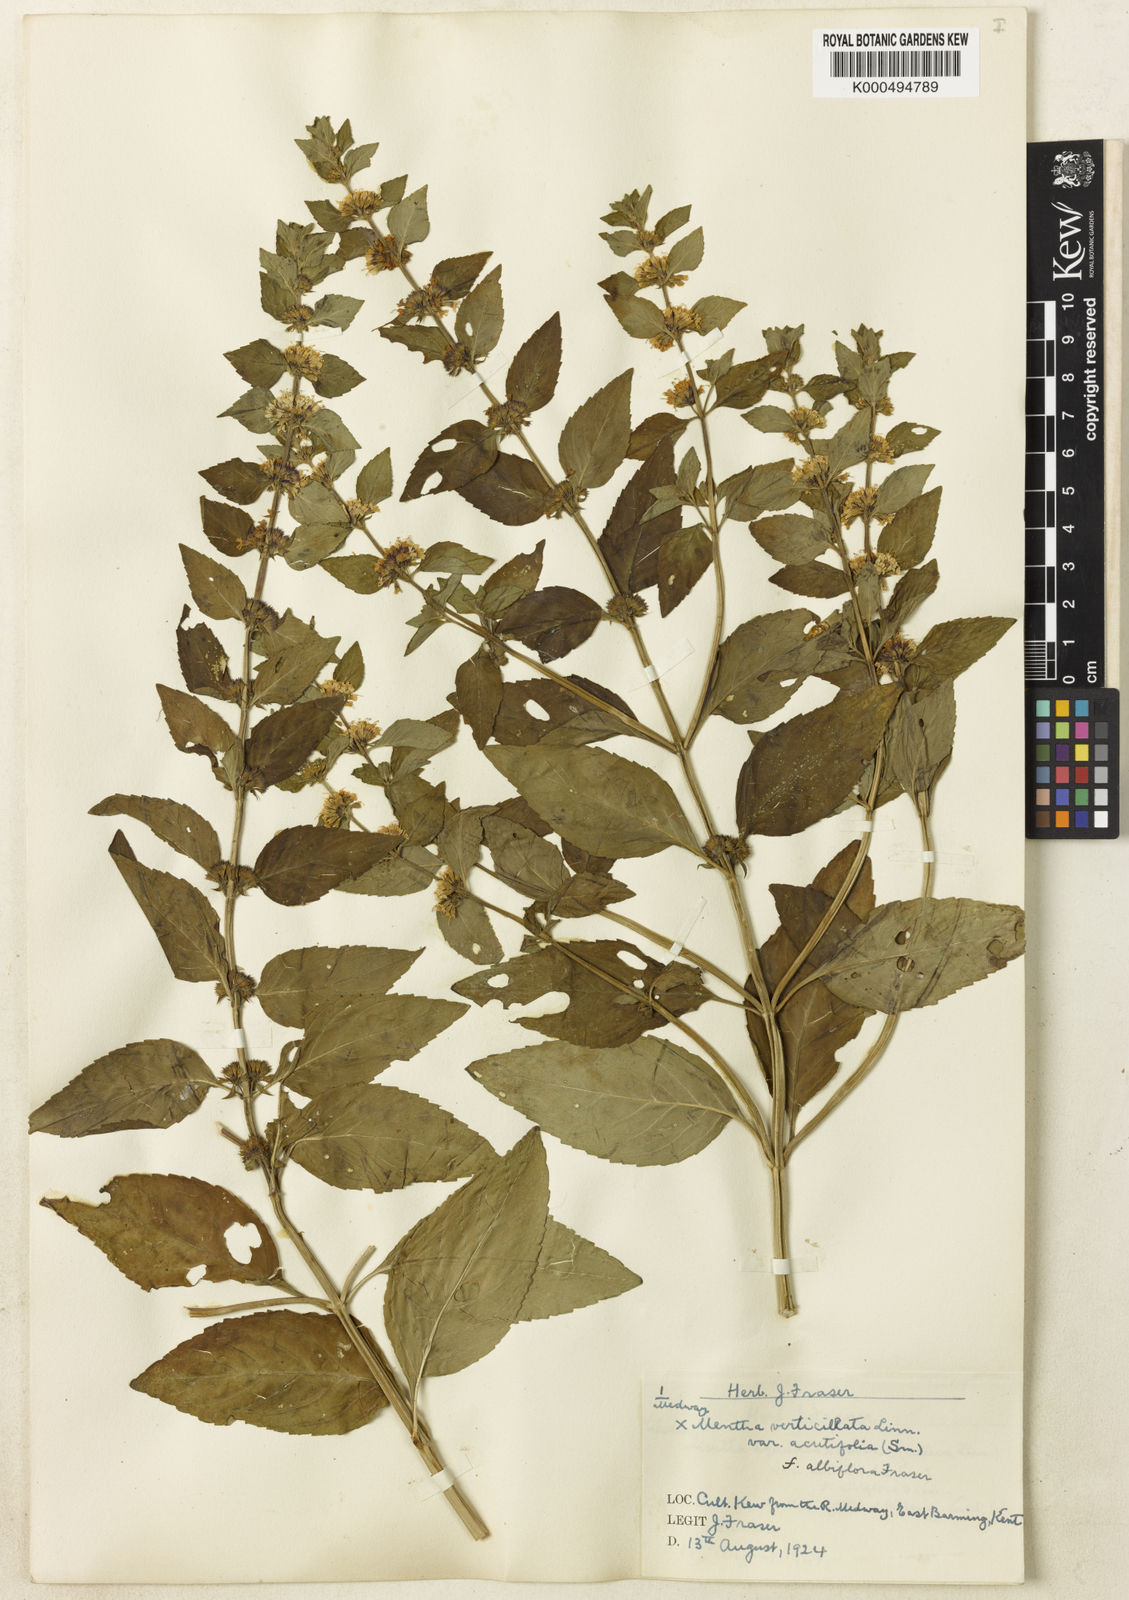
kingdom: Plantae
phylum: Tracheophyta
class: Magnoliopsida
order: Lamiales
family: Lamiaceae
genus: Mentha
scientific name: Mentha verticillata
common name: Mint
